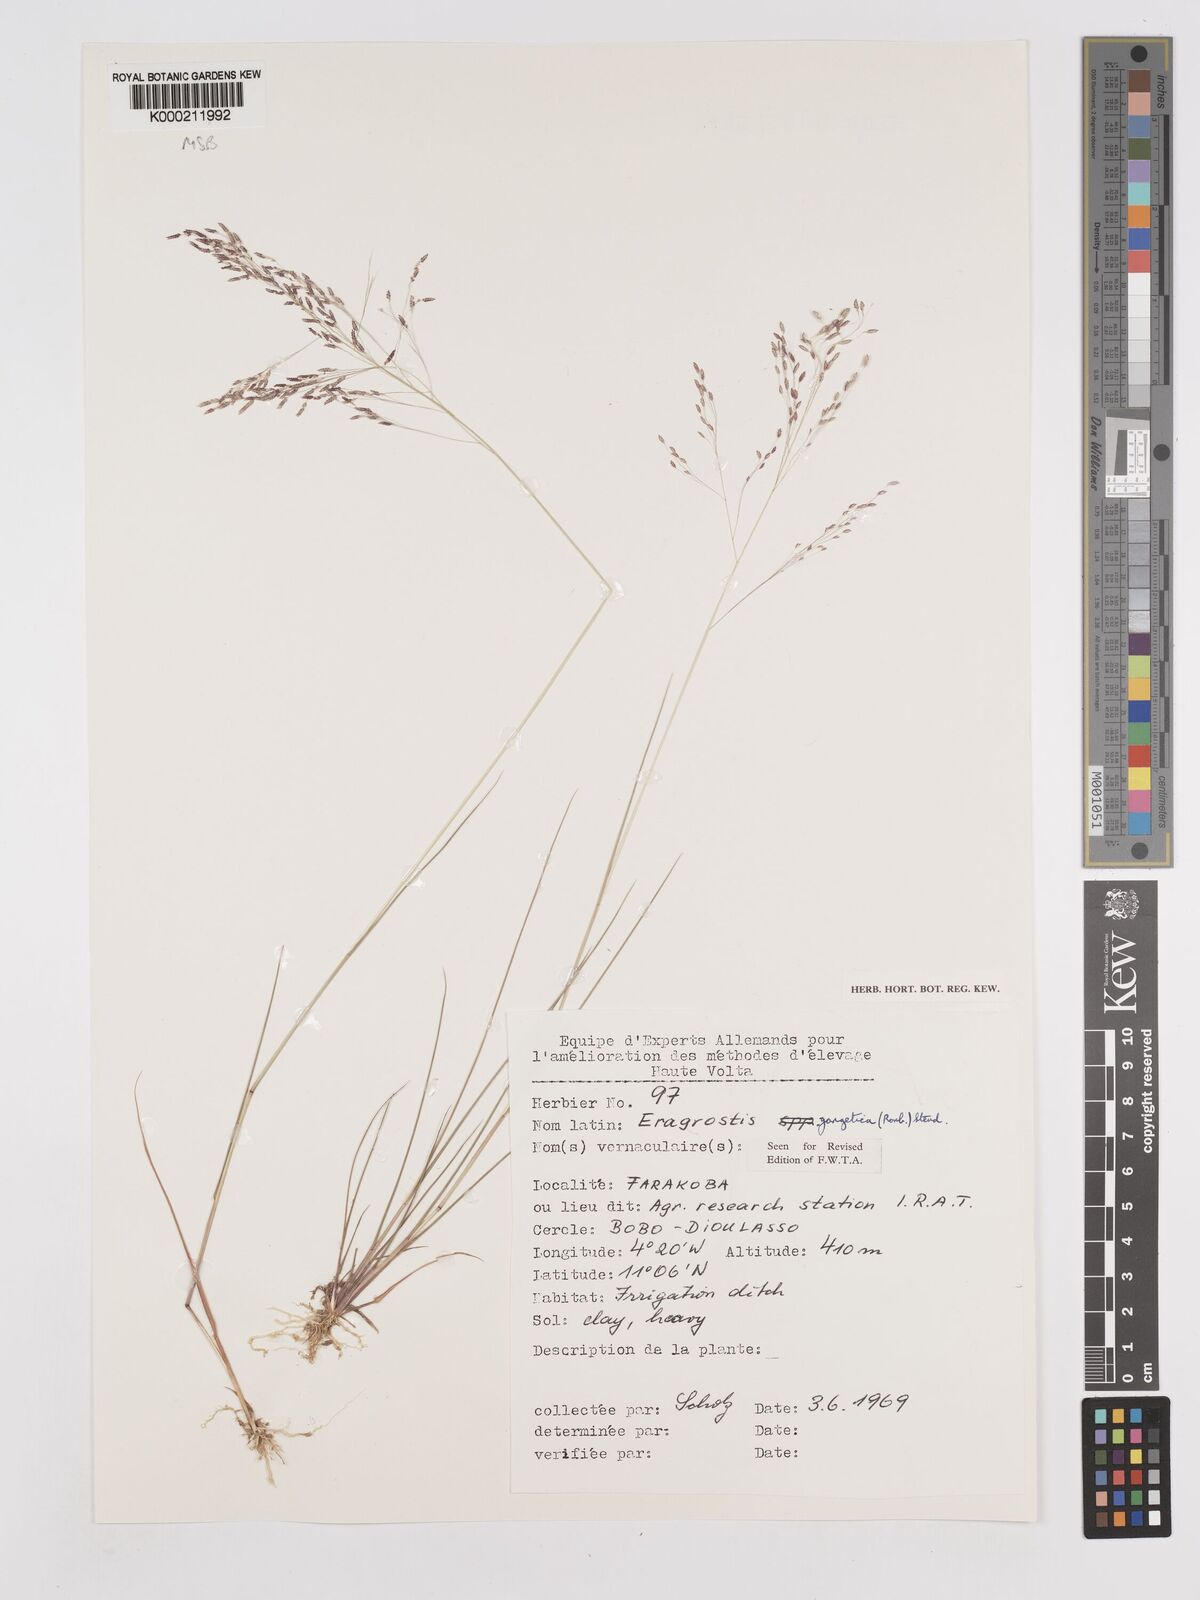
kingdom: Plantae
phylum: Tracheophyta
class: Liliopsida
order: Poales
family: Poaceae
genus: Eragrostis
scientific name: Eragrostis gangetica
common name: Slimflower lovegrass
